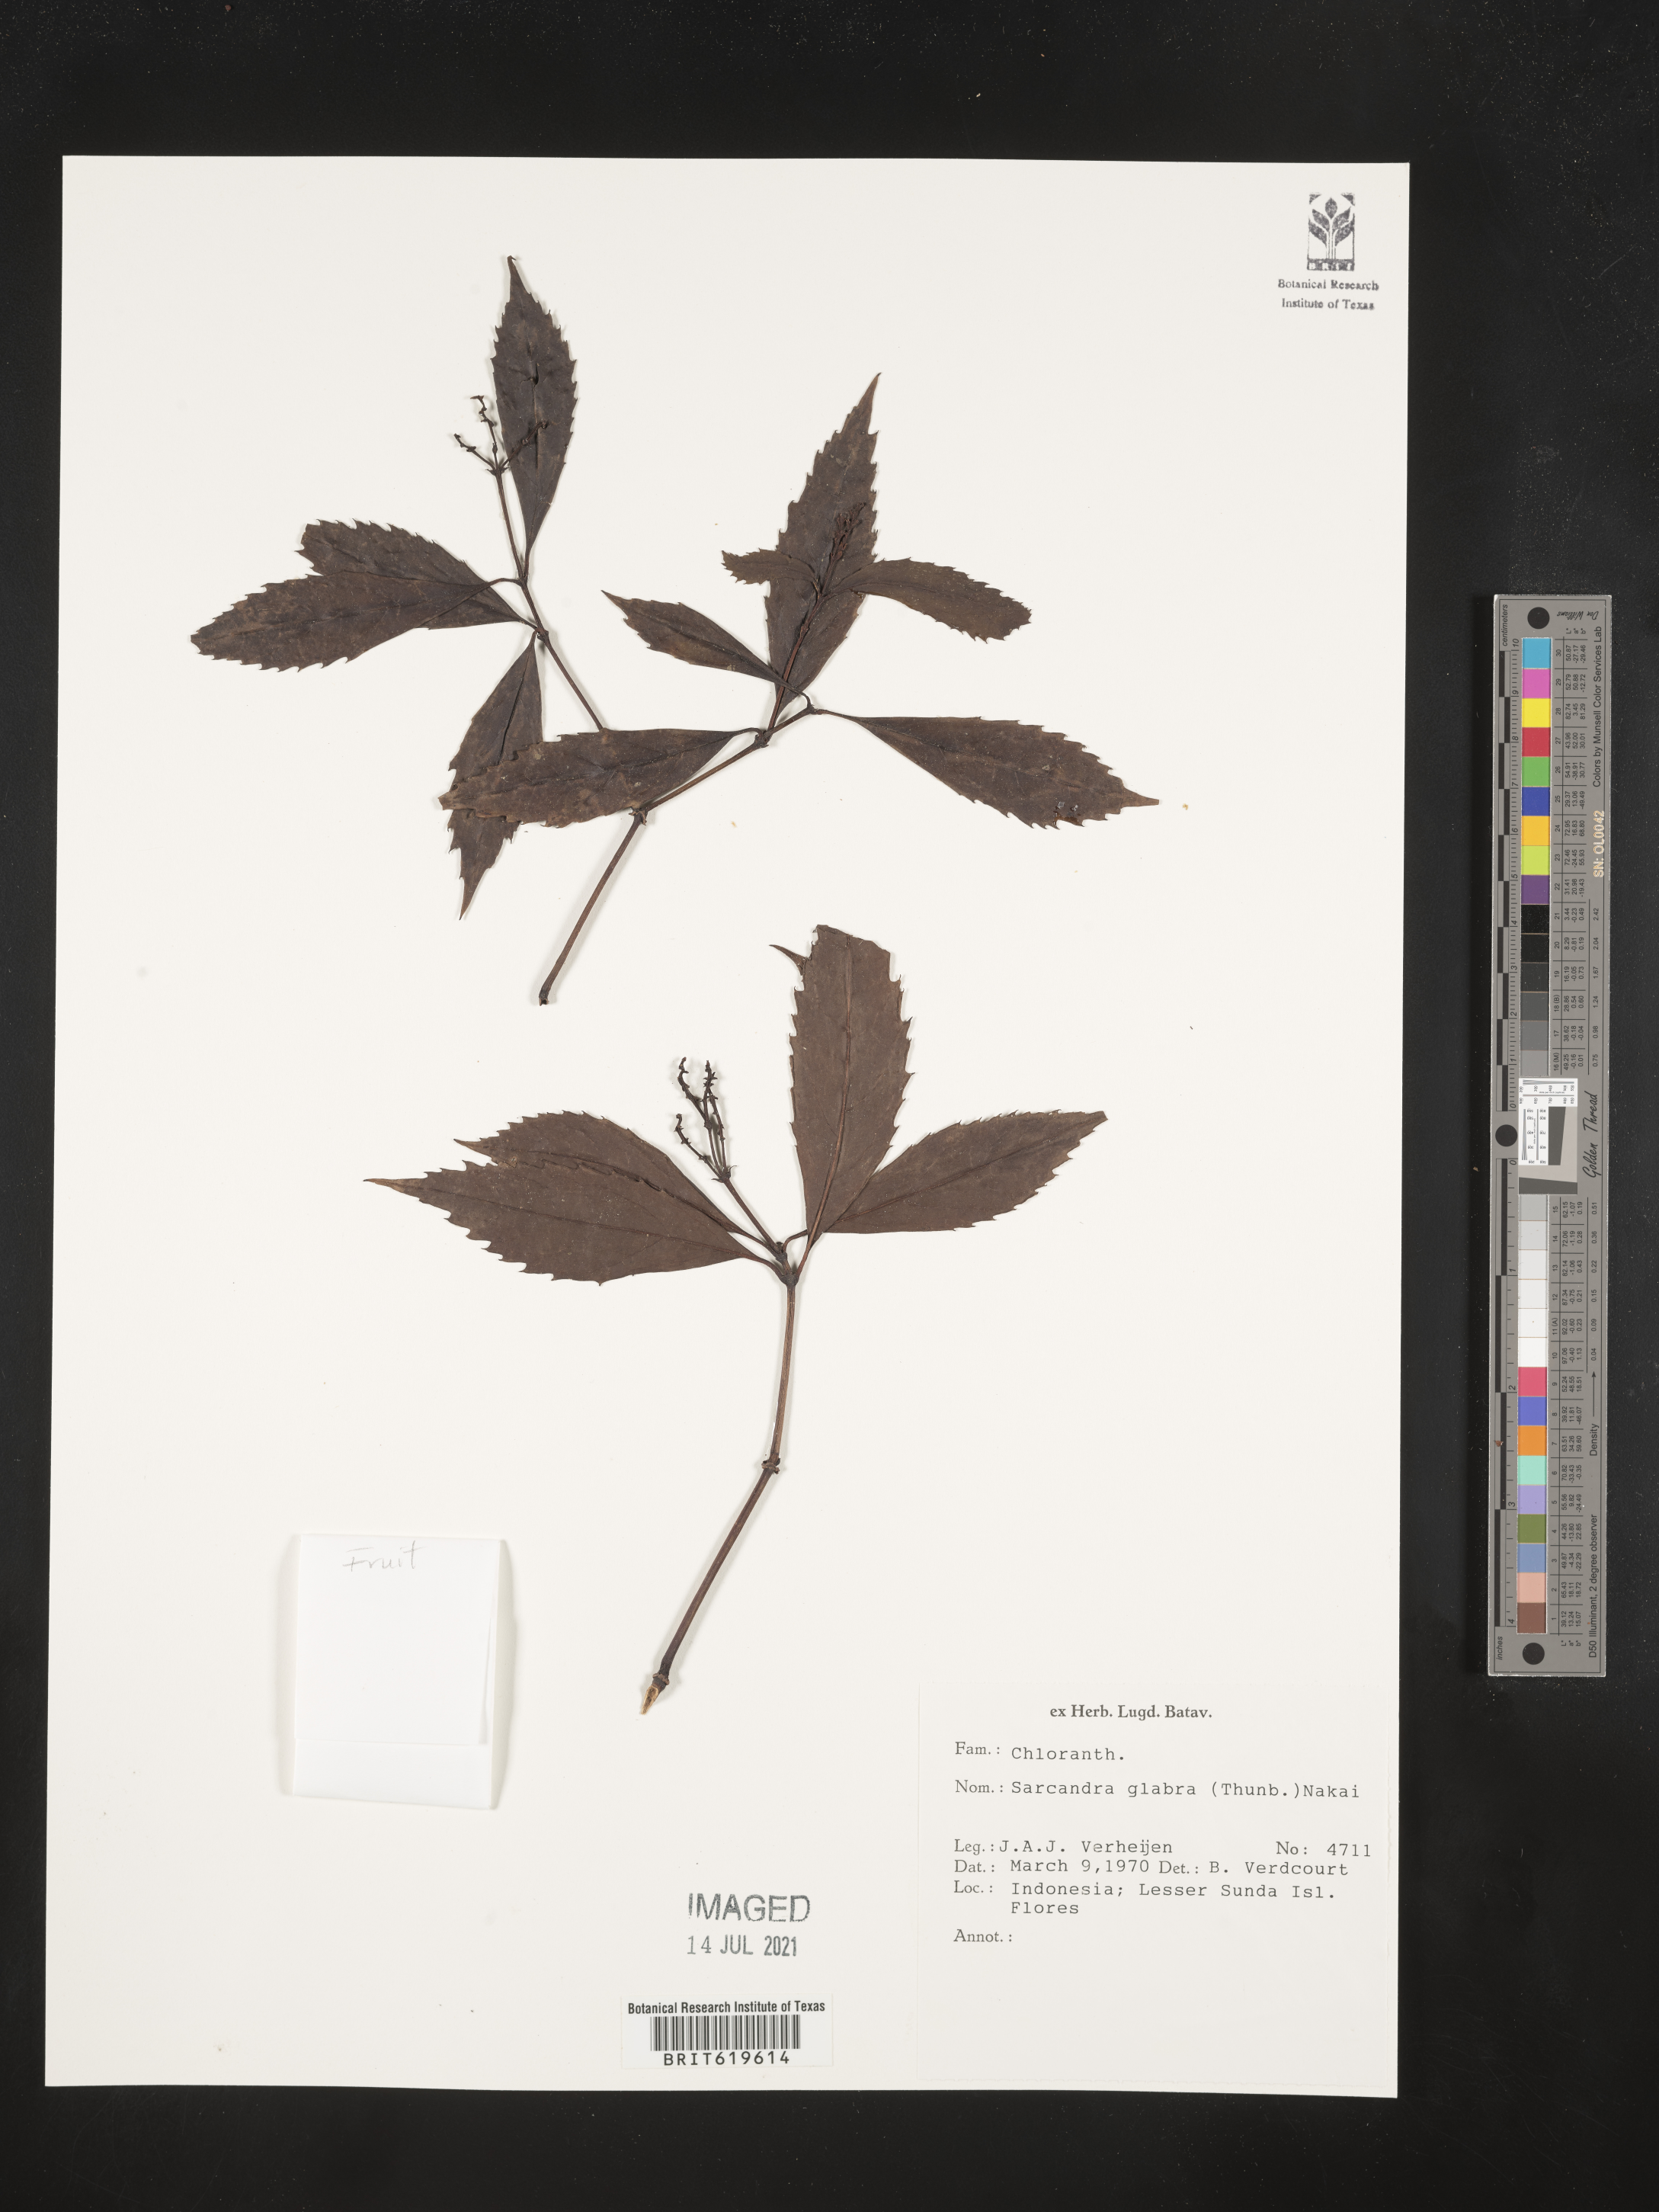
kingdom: Plantae
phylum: Tracheophyta
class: Magnoliopsida
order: Chloranthales
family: Chloranthaceae
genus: Sarcandra
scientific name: Sarcandra glabra
